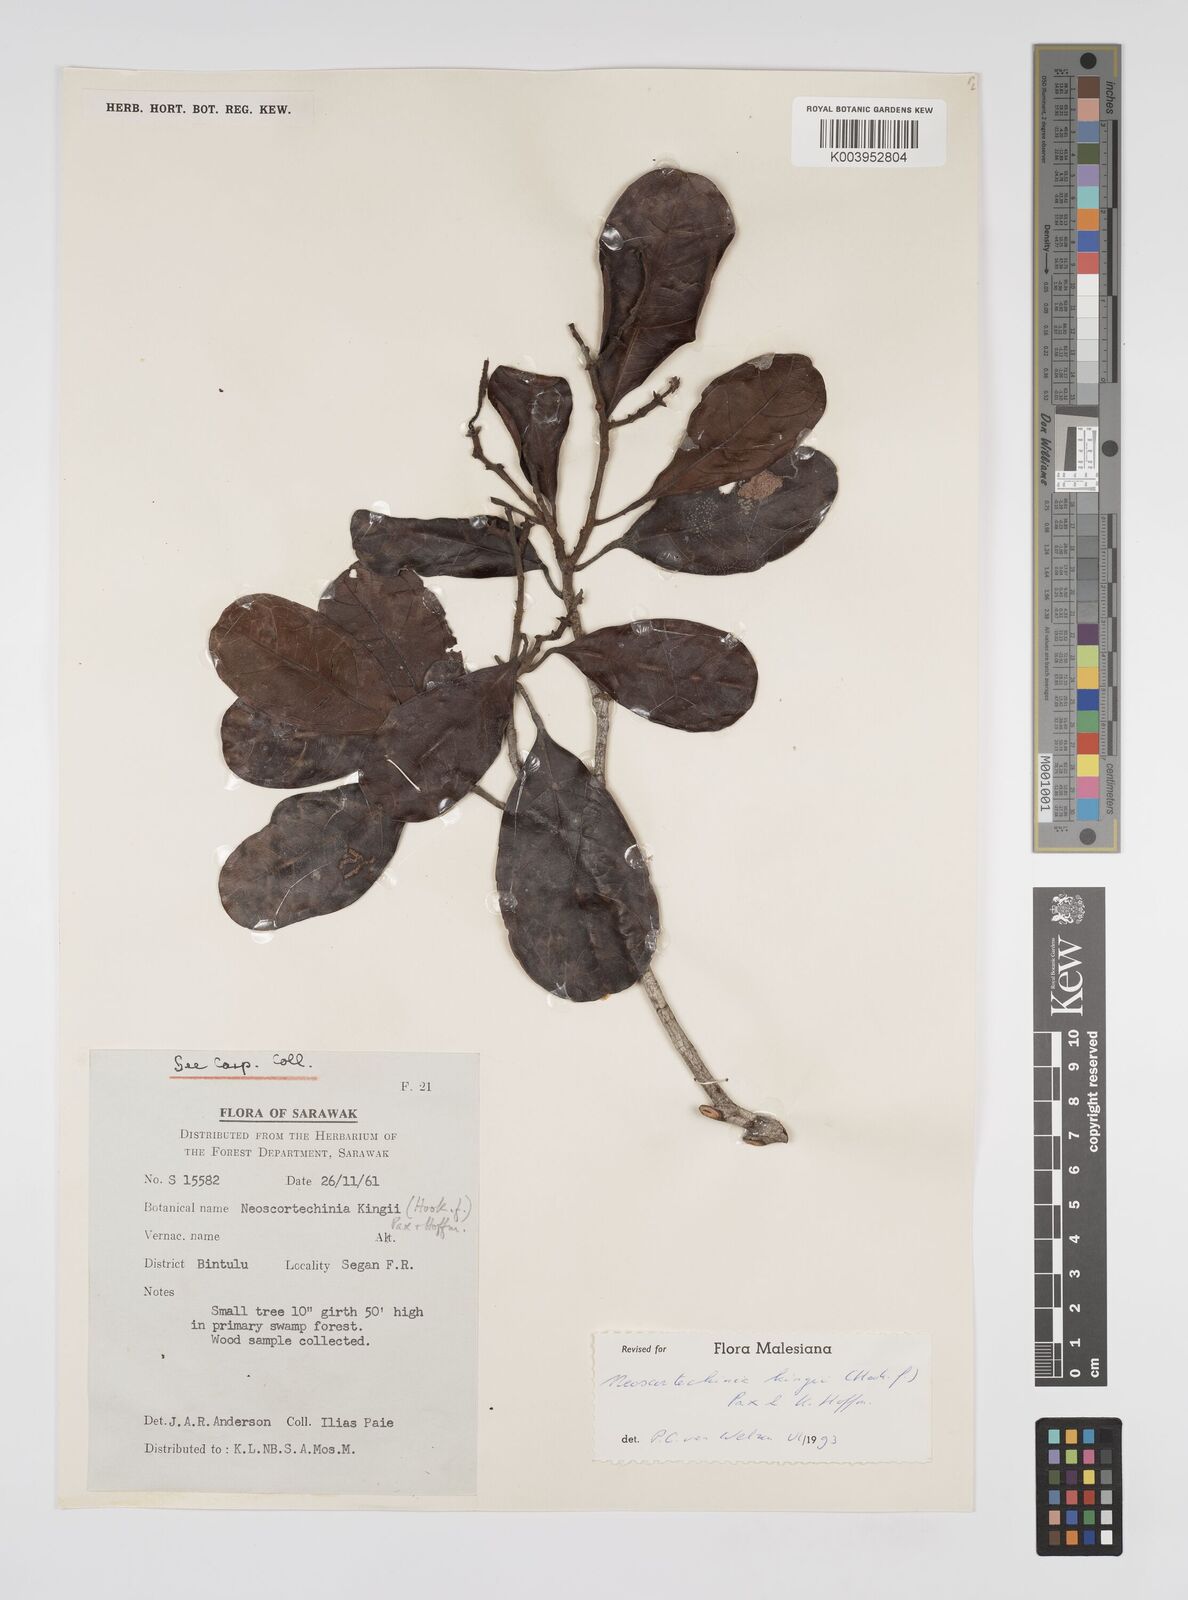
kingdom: Plantae
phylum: Tracheophyta
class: Magnoliopsida
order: Malpighiales
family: Euphorbiaceae
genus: Neoscortechinia
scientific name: Neoscortechinia kingii
